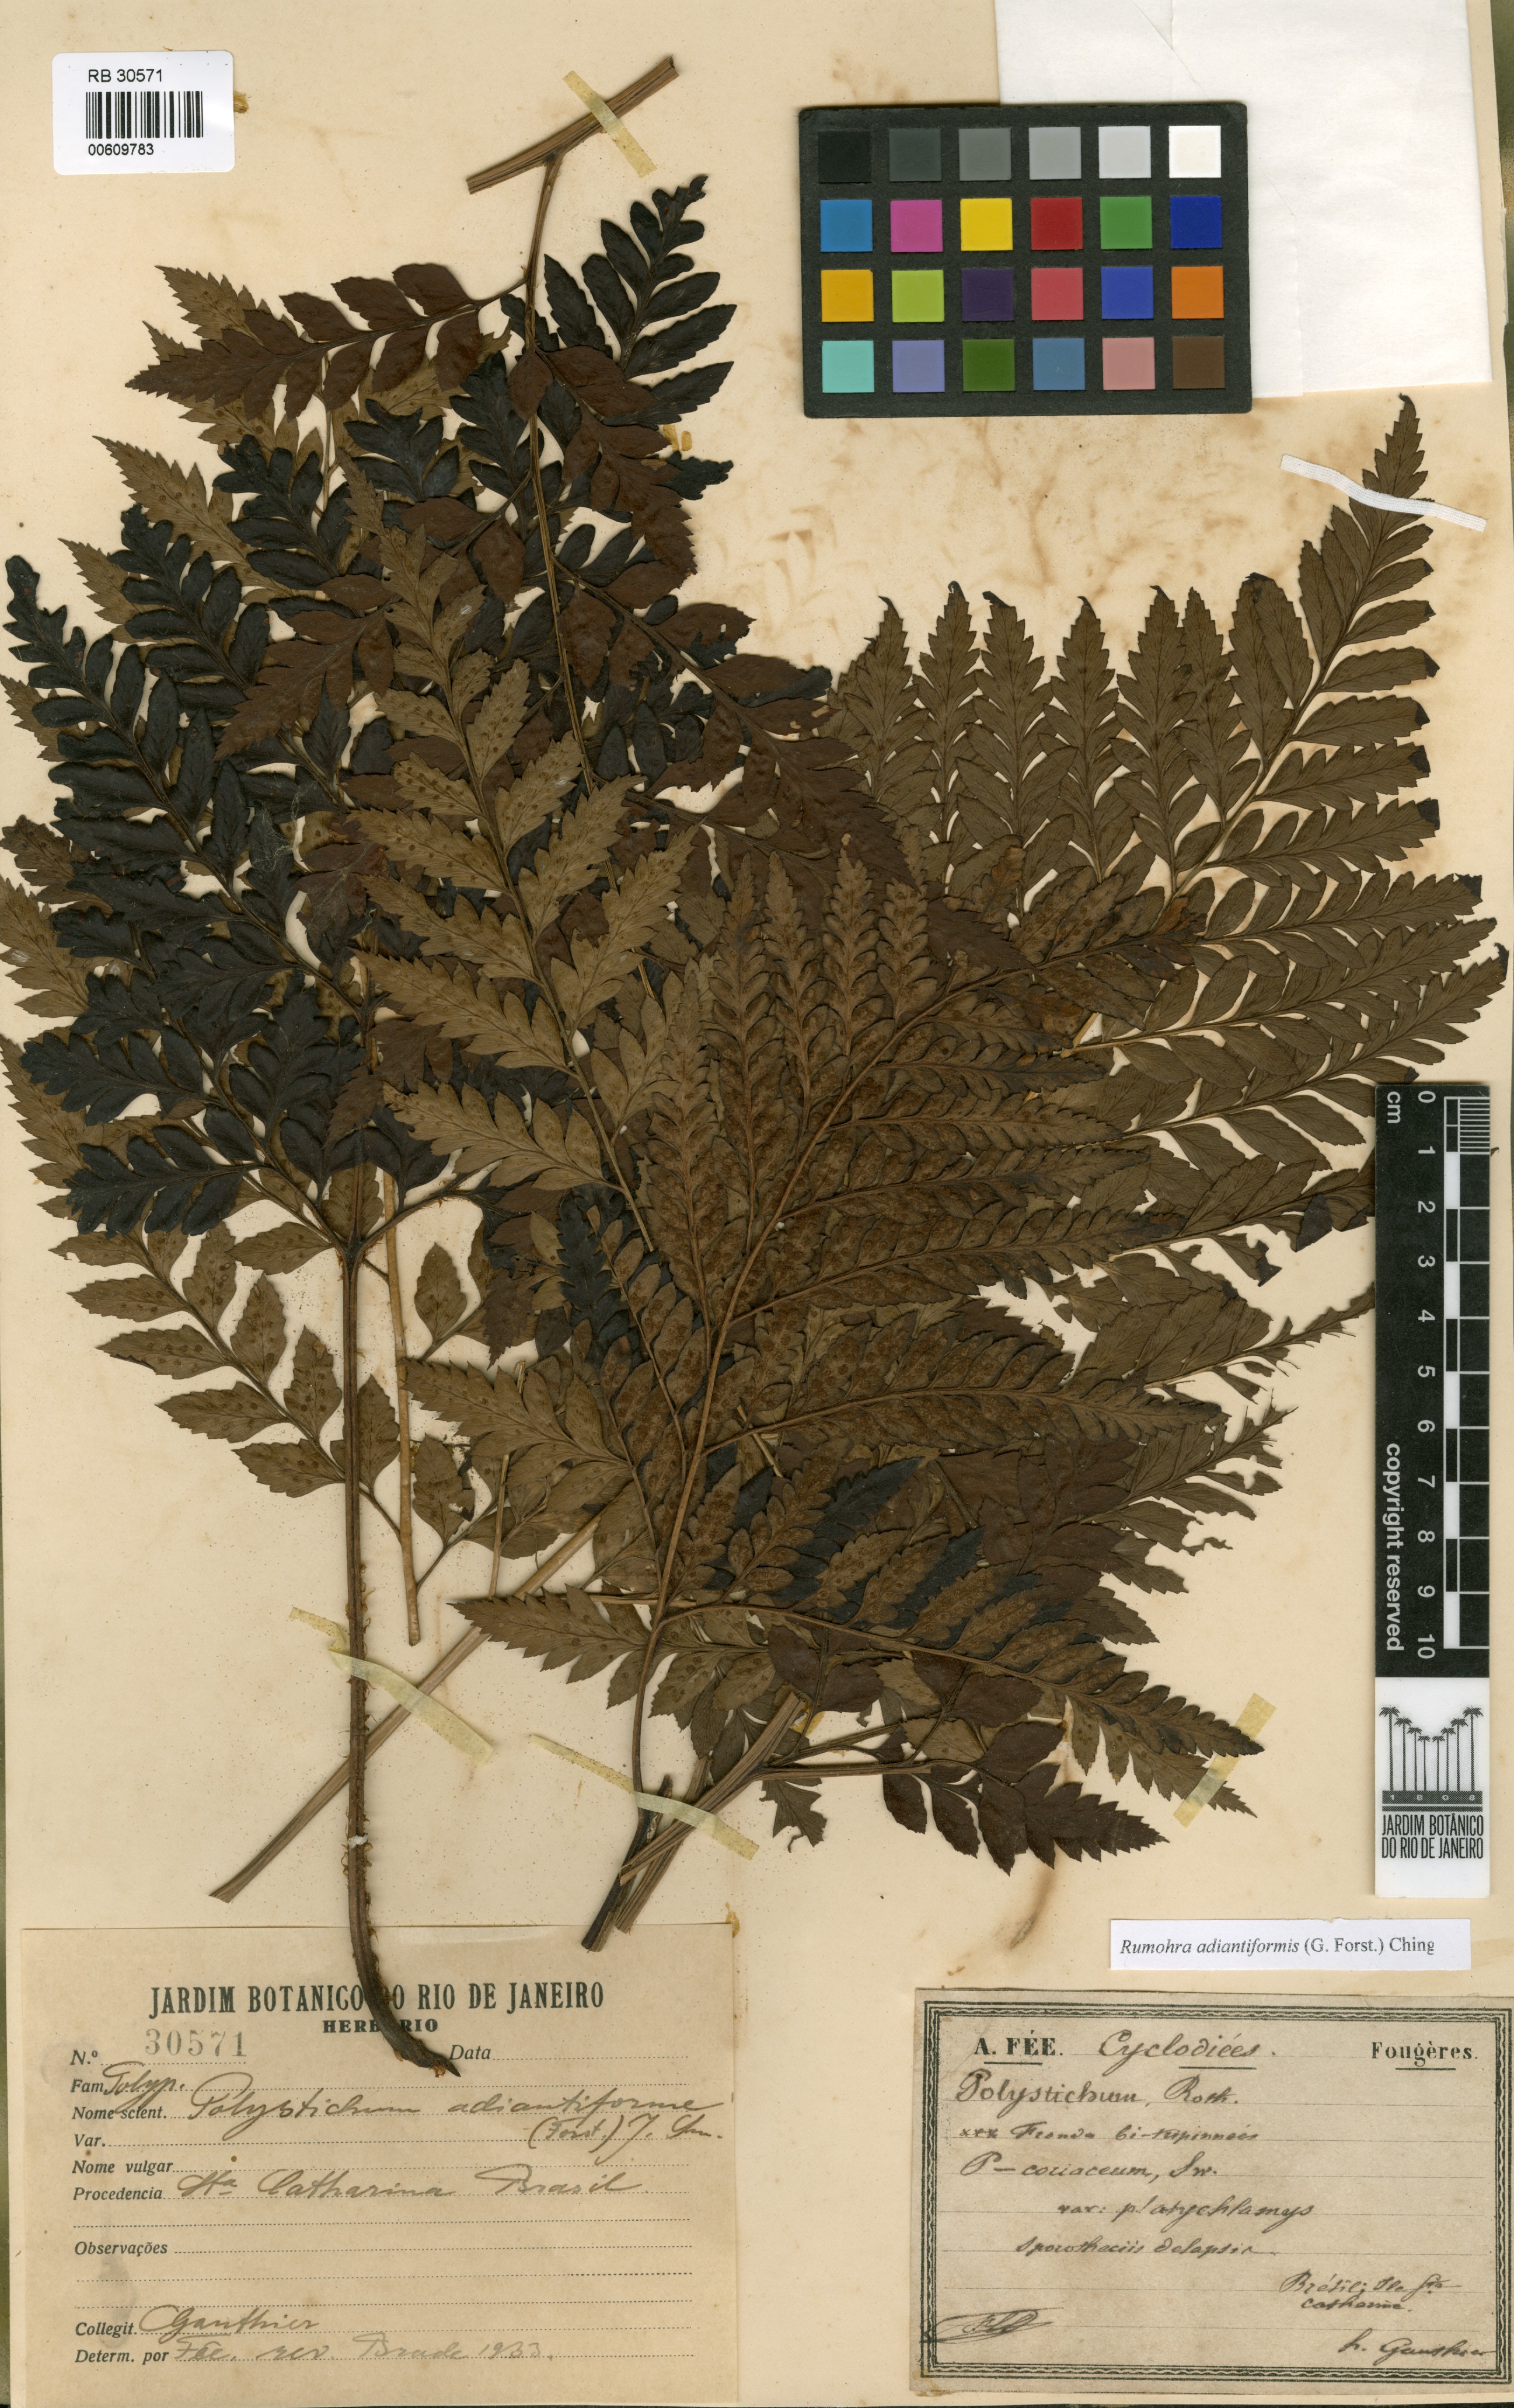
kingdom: Plantae
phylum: Tracheophyta
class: Polypodiopsida
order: Polypodiales
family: Dryopteridaceae
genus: Rumohra
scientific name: Rumohra adiantiformis
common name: Leather fern
